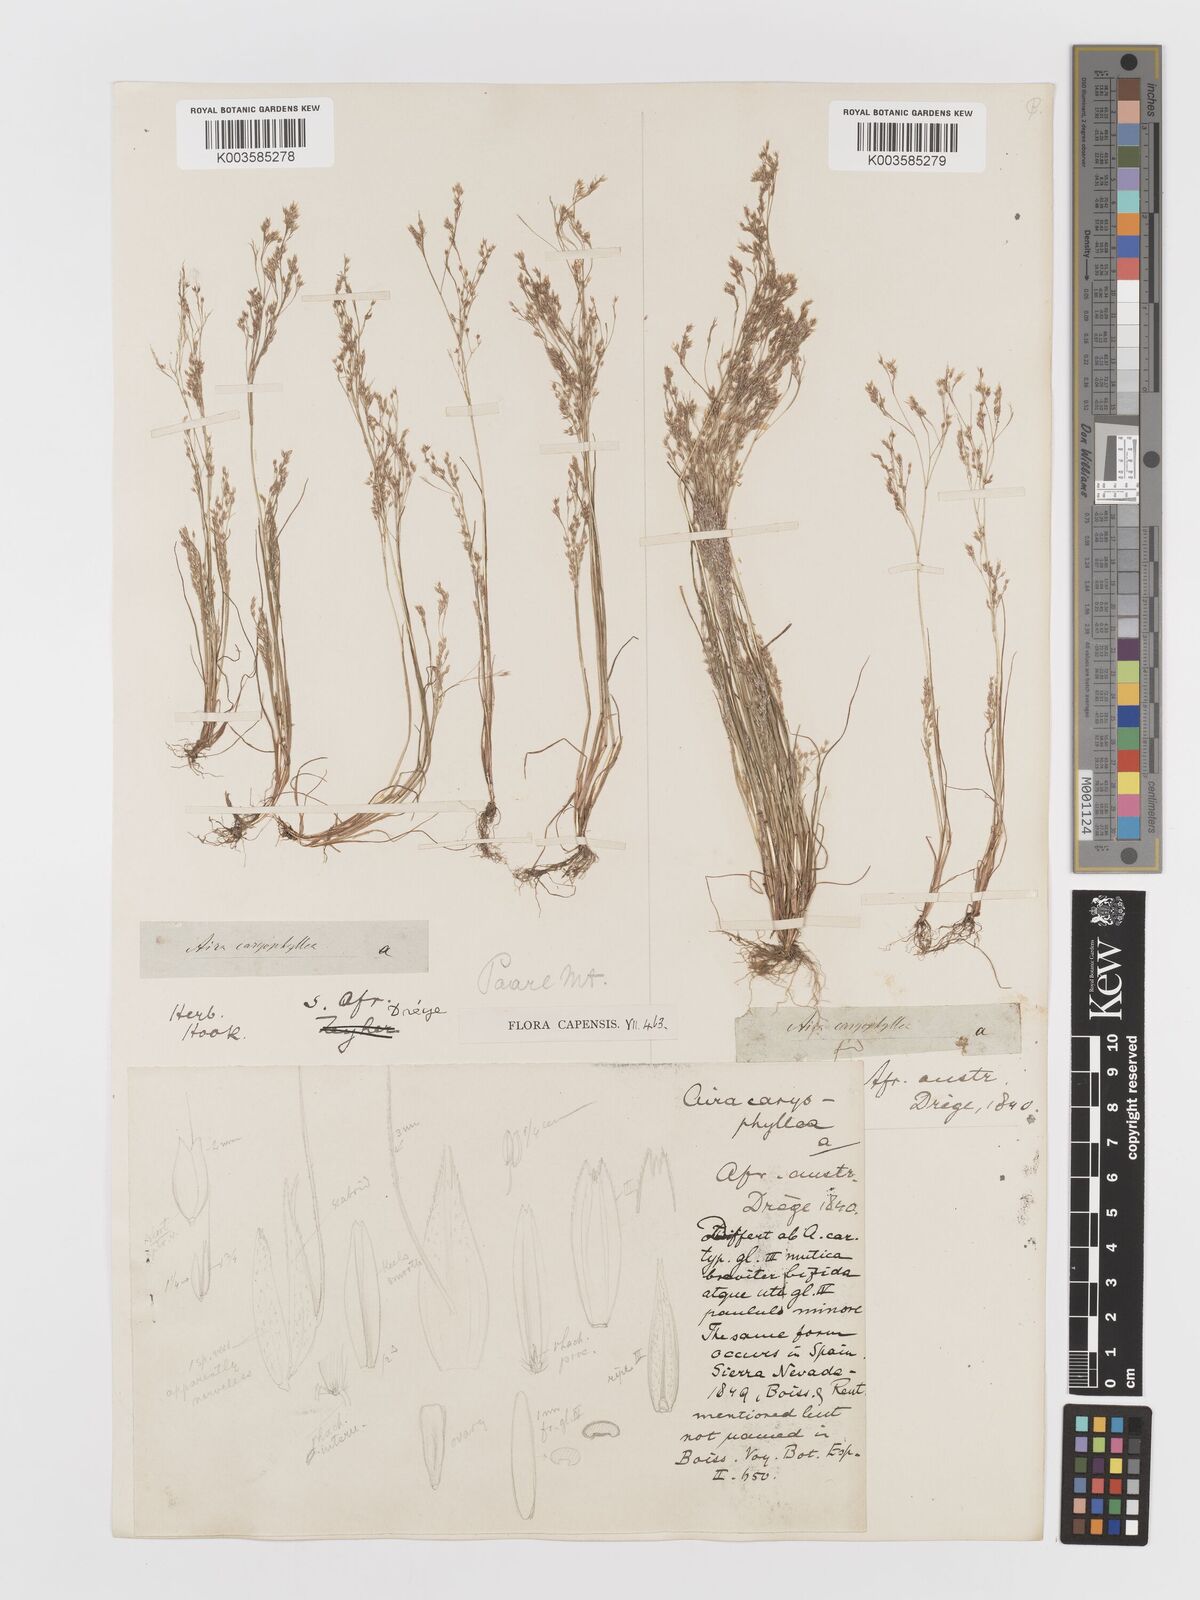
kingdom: Plantae
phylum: Tracheophyta
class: Liliopsida
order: Poales
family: Poaceae
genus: Aira
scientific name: Aira cupaniana
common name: Silver hairgrass
